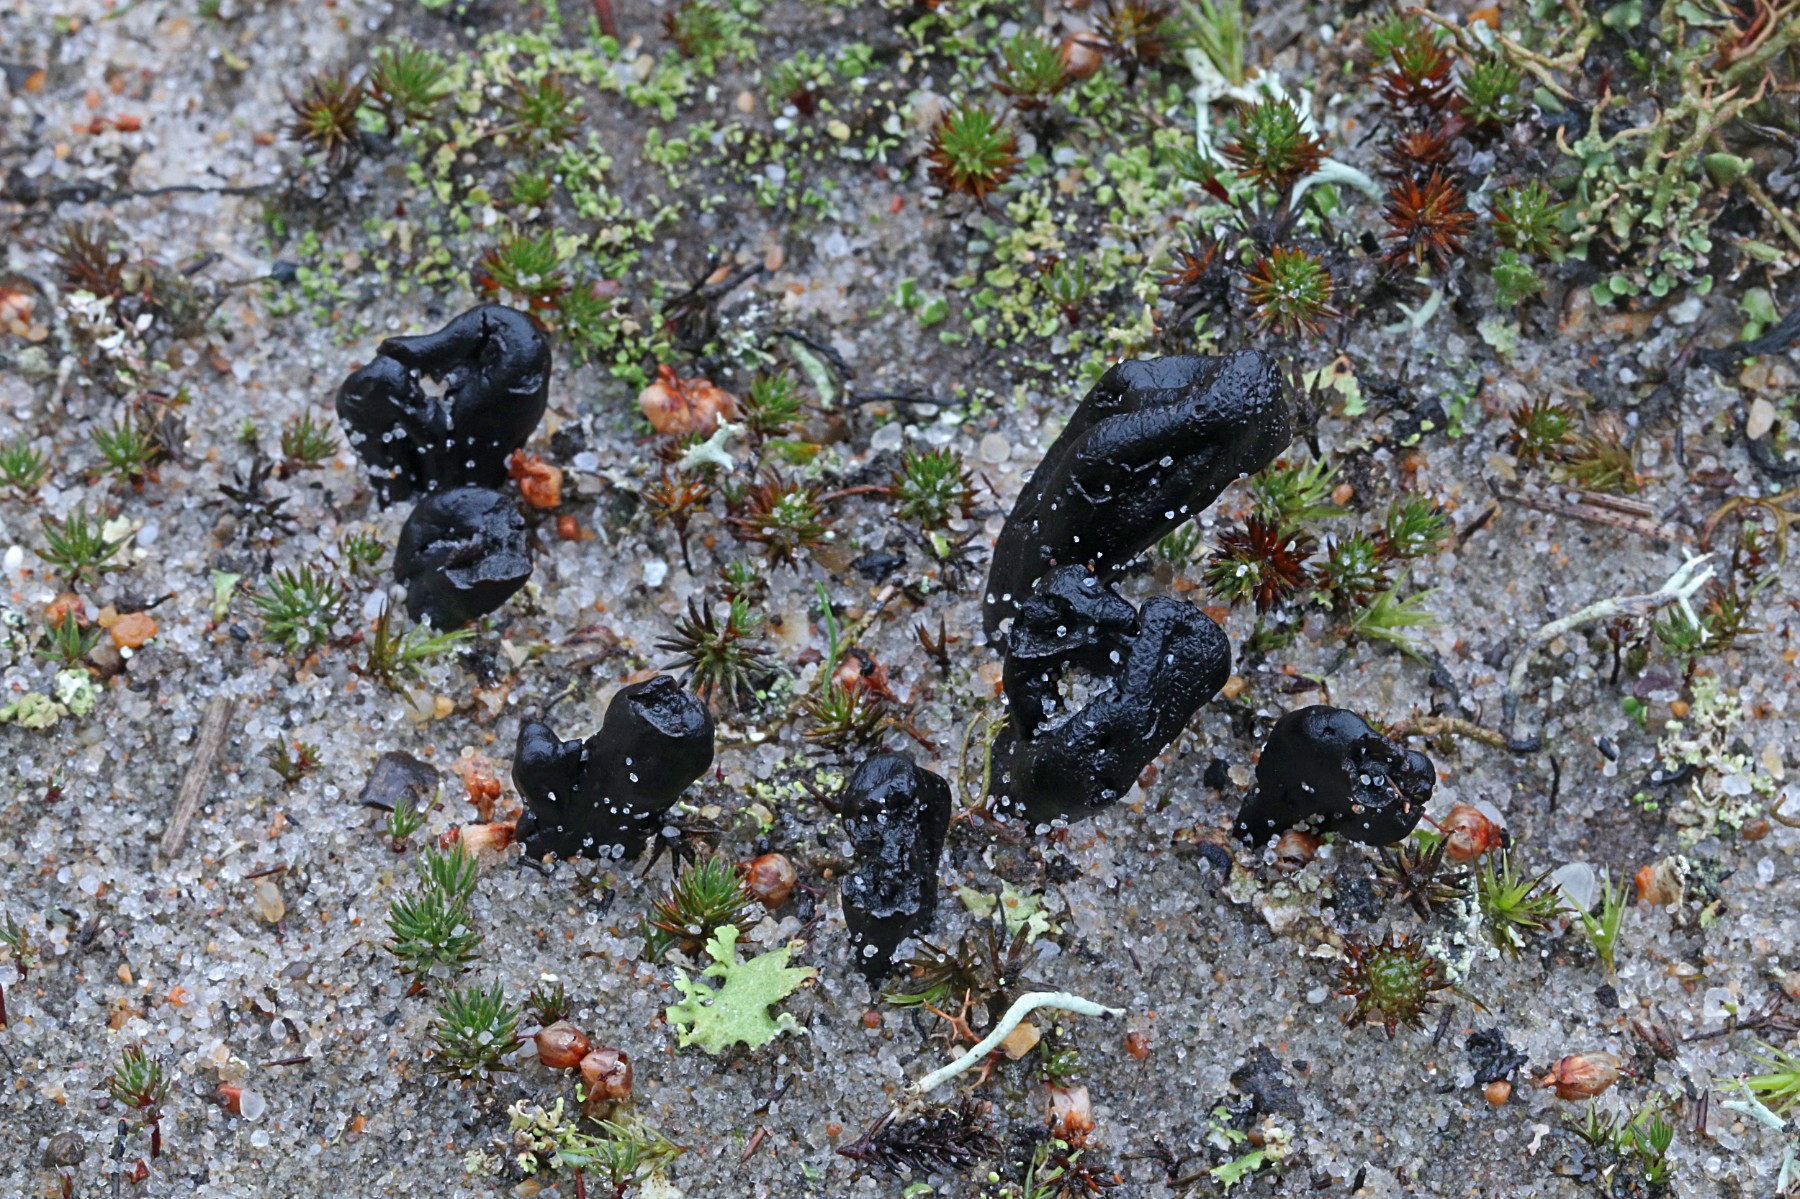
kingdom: Fungi
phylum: Ascomycota
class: Geoglossomycetes
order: Geoglossales
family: Geoglossaceae
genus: Sabuloglossum
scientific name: Sabuloglossum arenarium
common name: klit-jordtunge
